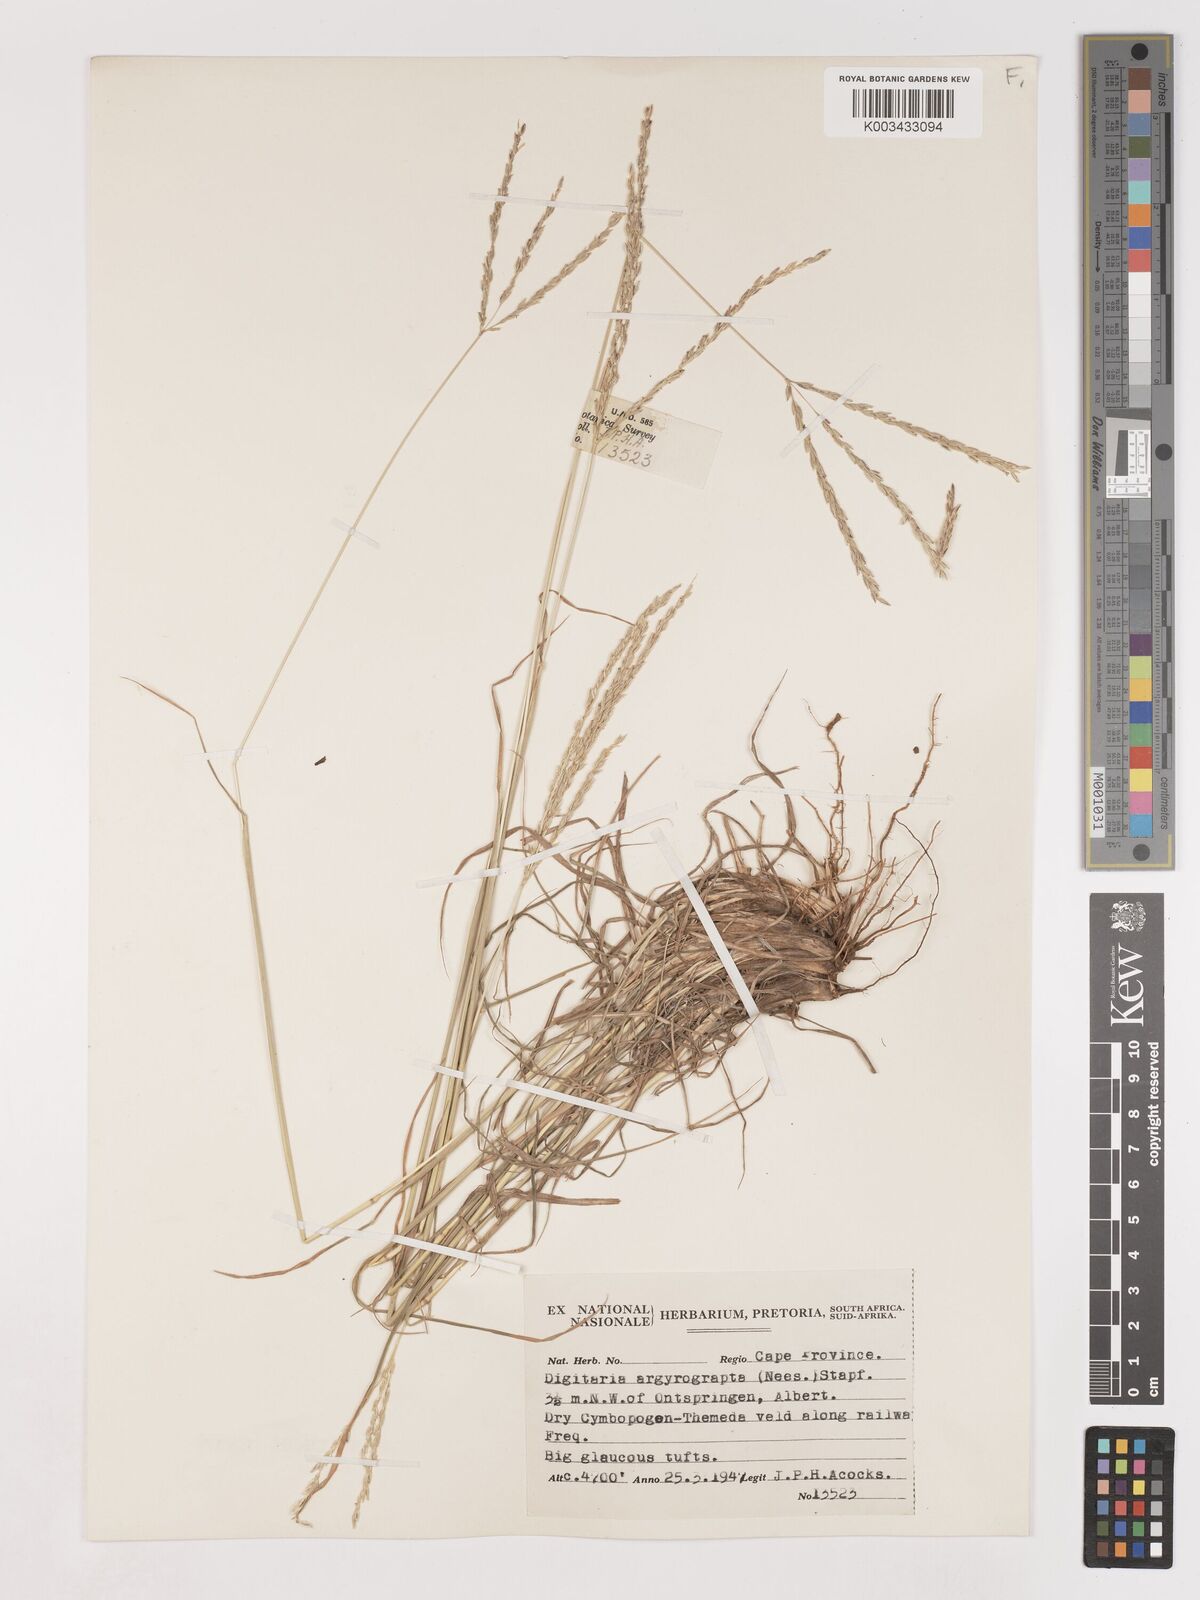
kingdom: Plantae
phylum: Tracheophyta
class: Liliopsida
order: Poales
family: Poaceae
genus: Digitaria
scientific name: Digitaria argyrograpta
